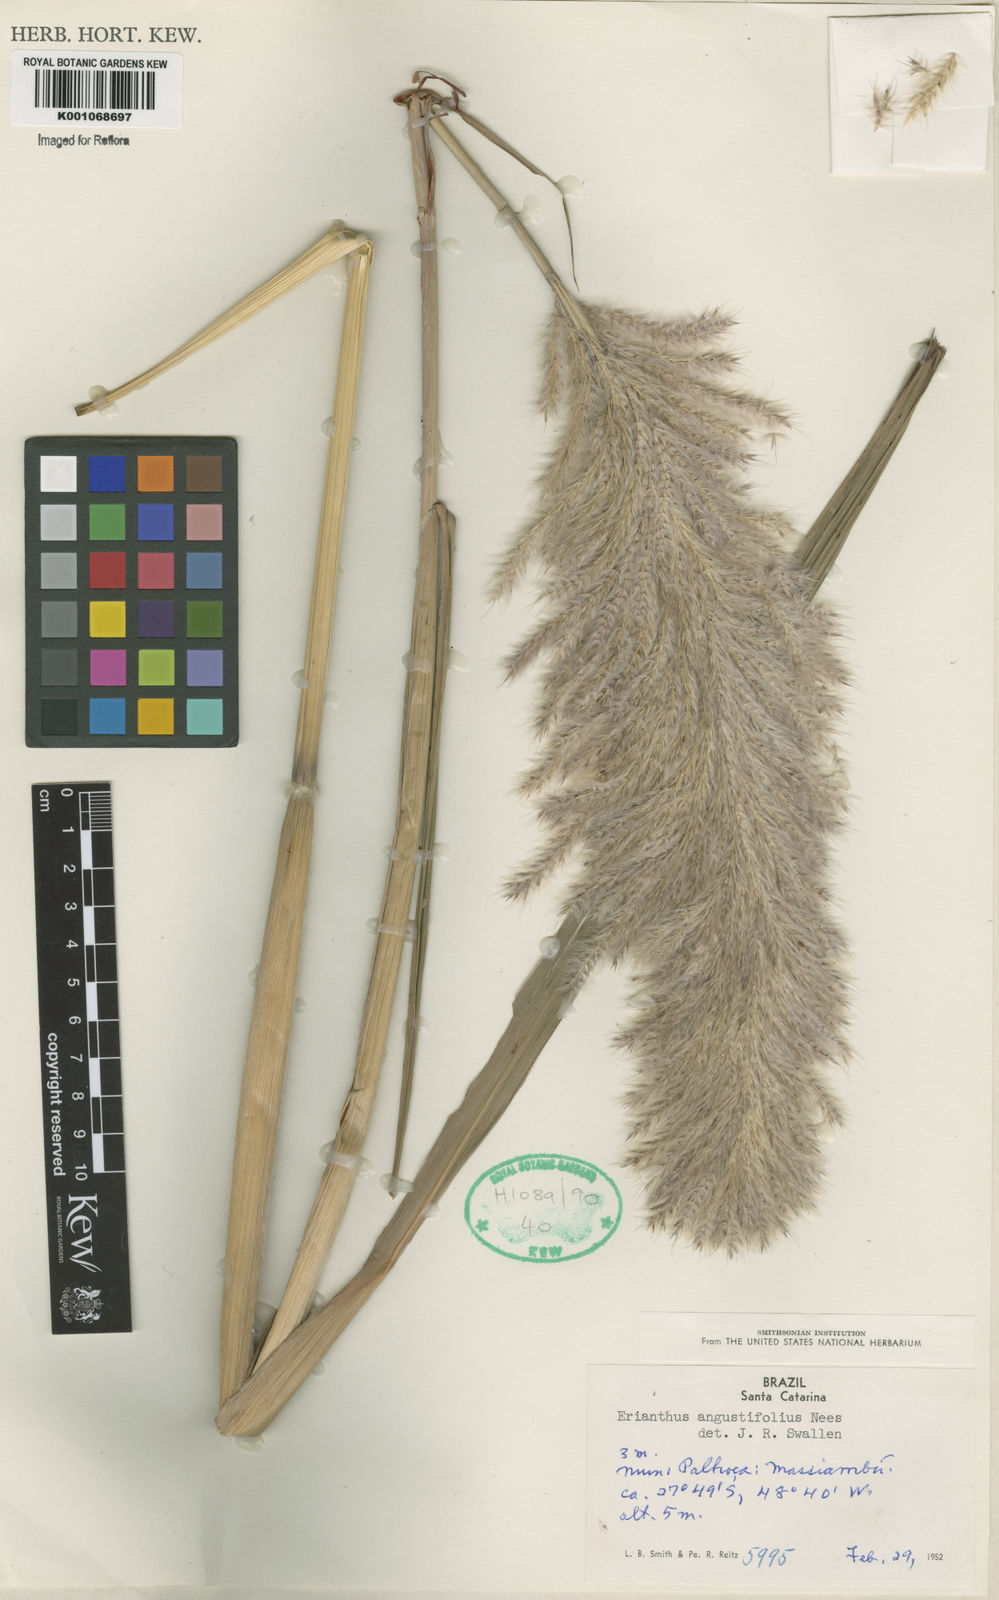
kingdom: Plantae
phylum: Tracheophyta
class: Liliopsida
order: Poales
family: Poaceae
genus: Erianthus
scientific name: Erianthus asper
